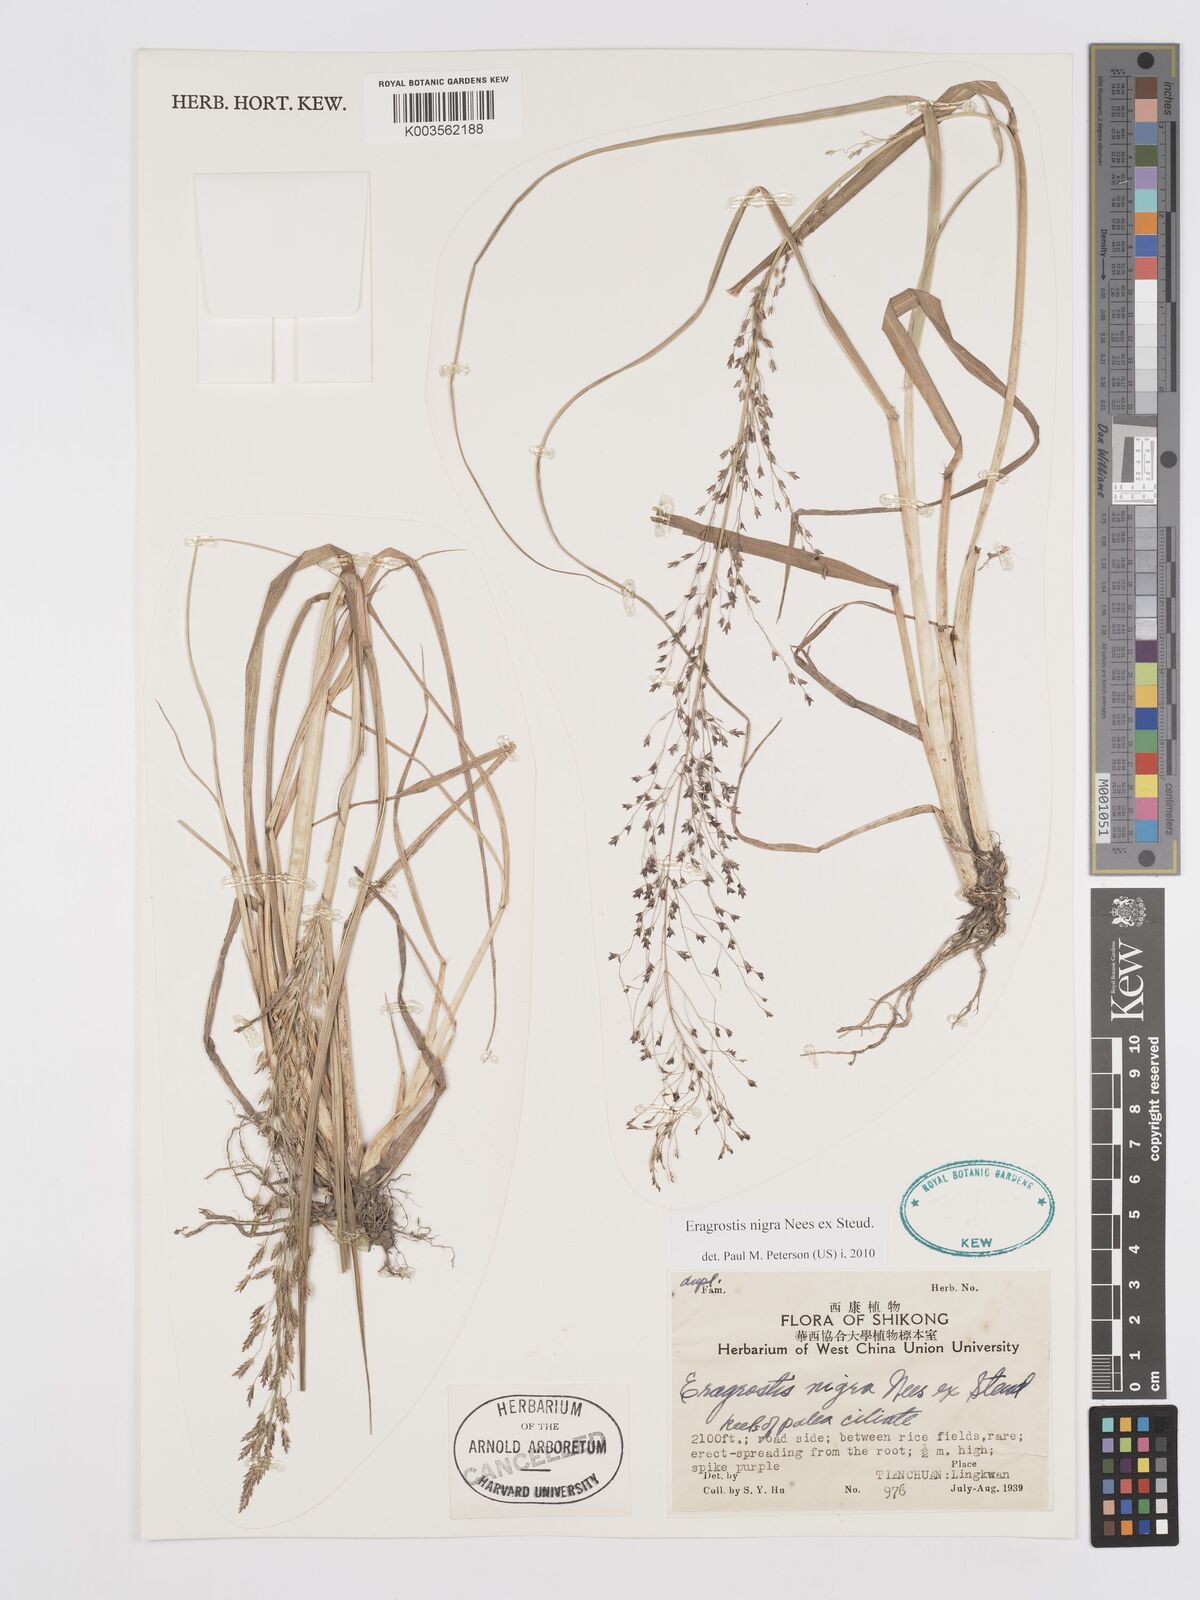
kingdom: Plantae
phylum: Tracheophyta
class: Liliopsida
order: Poales
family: Poaceae
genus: Eragrostis
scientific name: Eragrostis nigra
